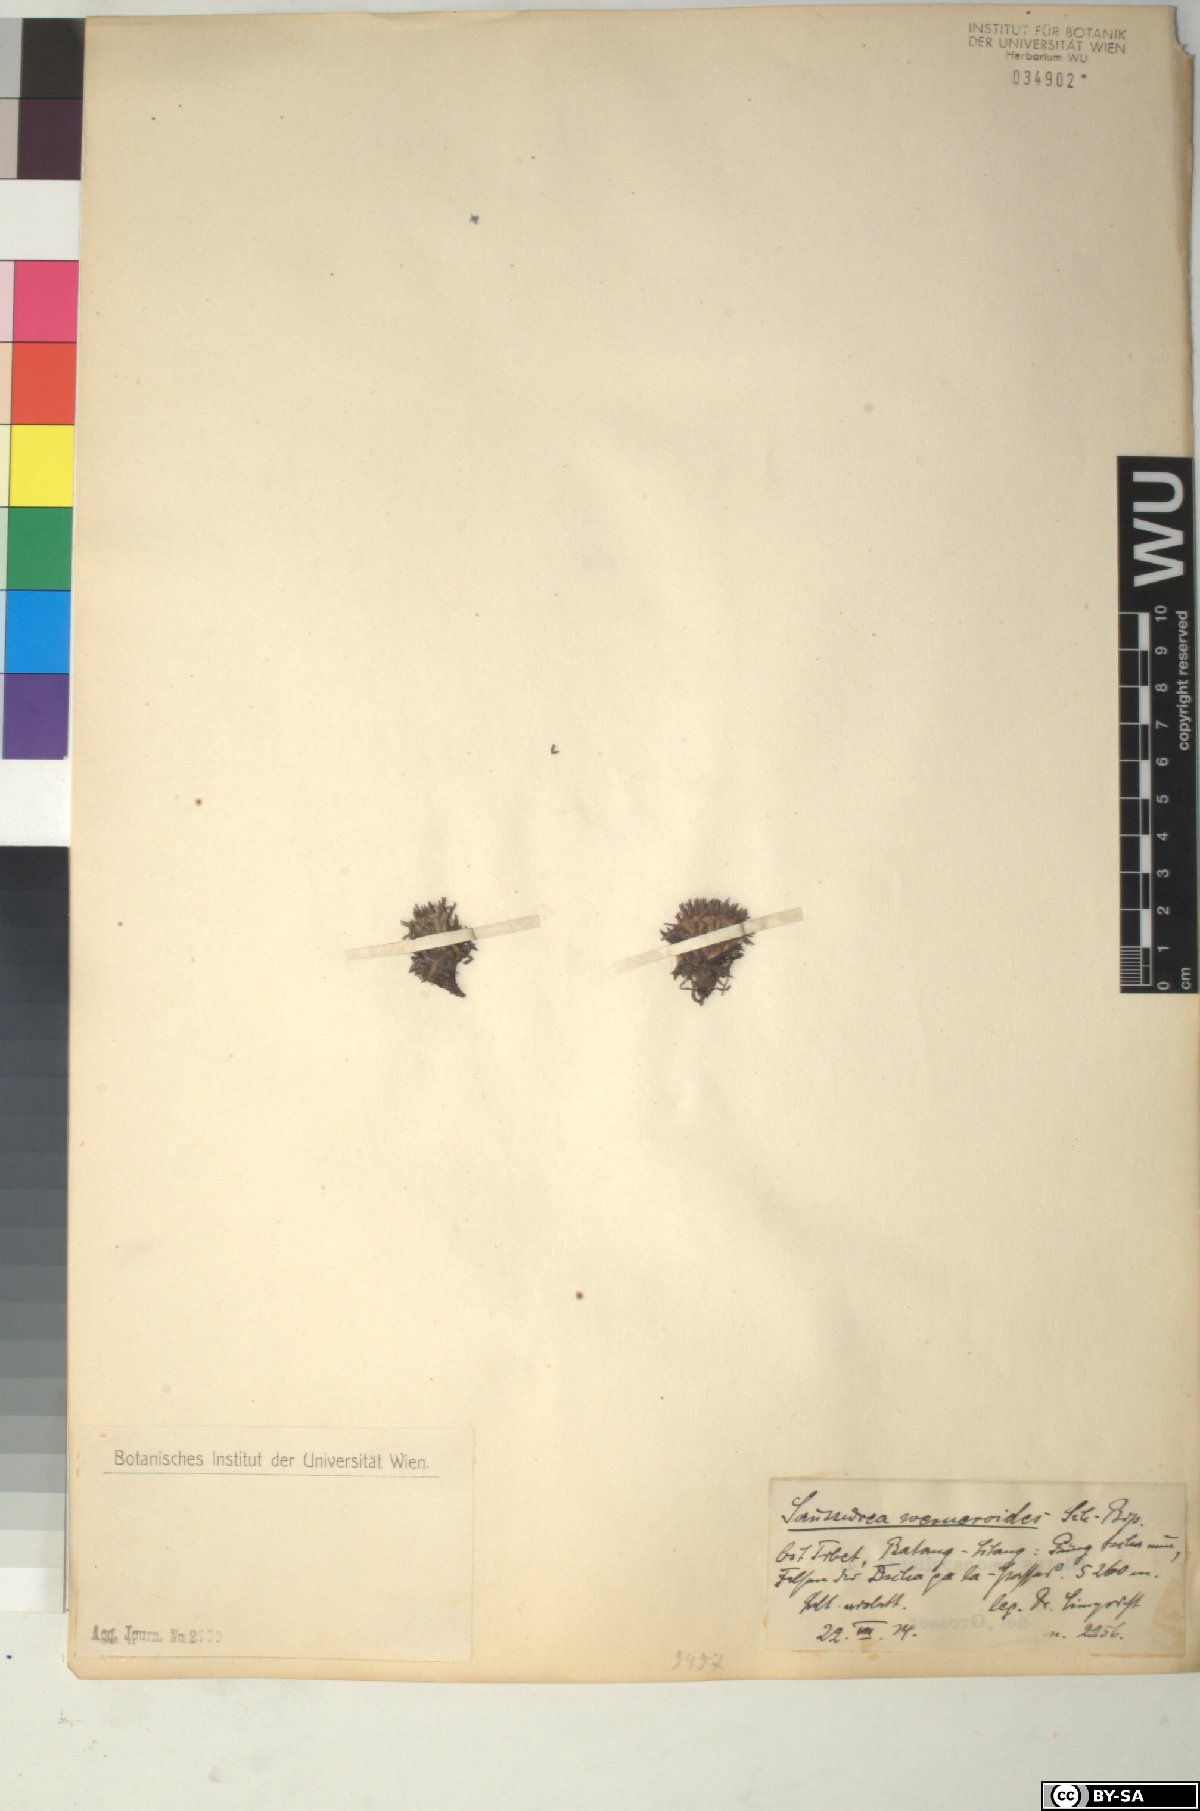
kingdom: Plantae
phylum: Tracheophyta
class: Magnoliopsida
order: Asterales
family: Asteraceae
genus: Saussurea
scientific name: Saussurea wernerioides
